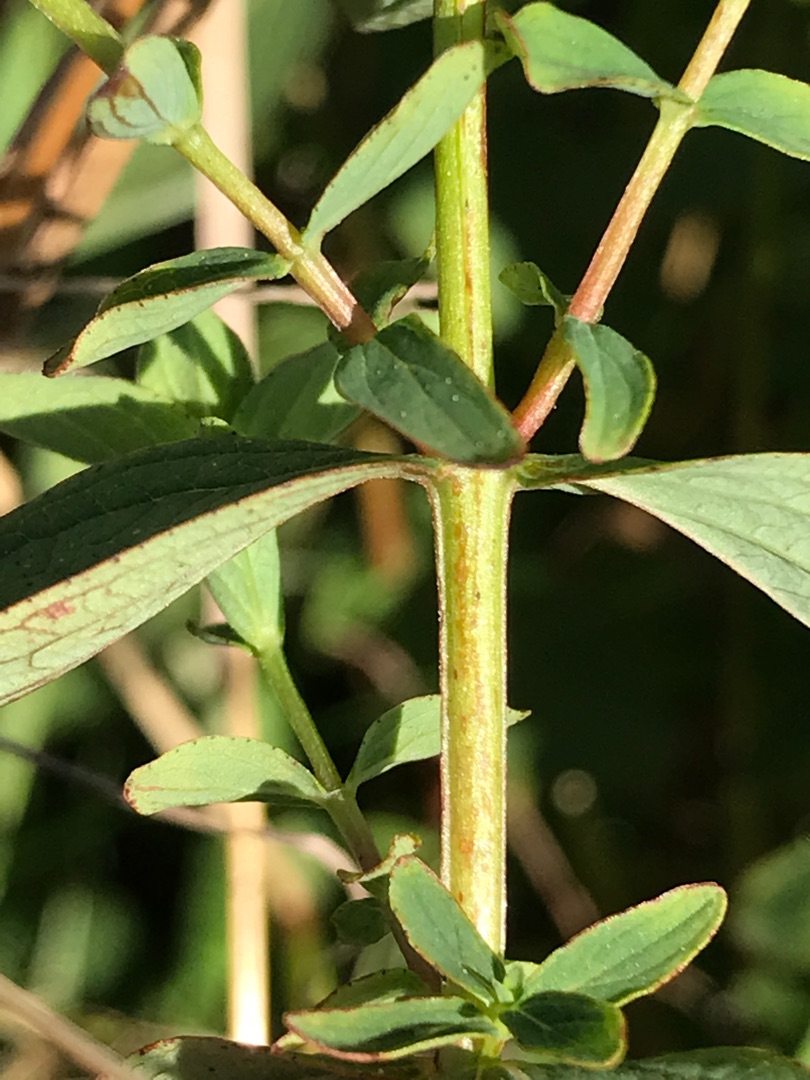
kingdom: Plantae
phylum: Tracheophyta
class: Magnoliopsida
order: Malpighiales
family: Hypericaceae
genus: Hypericum
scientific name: Hypericum maculatum
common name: Kantet perikon
